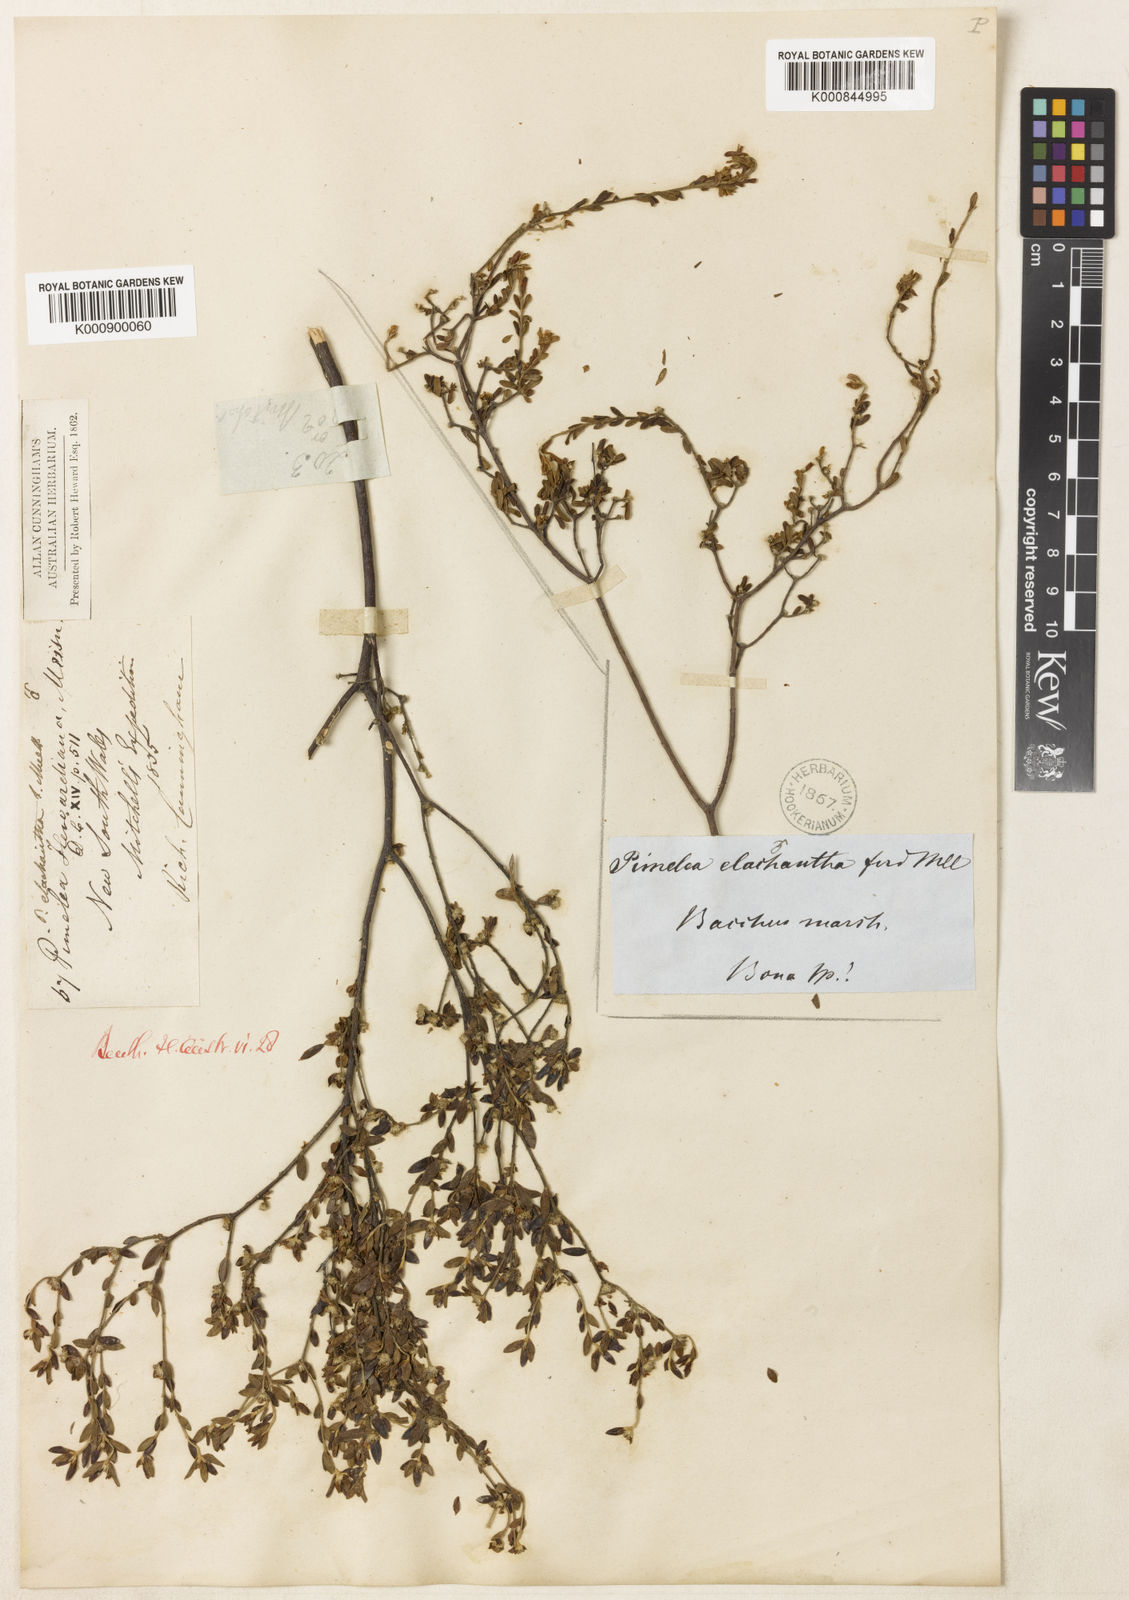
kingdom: Plantae
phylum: Tracheophyta
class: Magnoliopsida
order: Malvales
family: Thymelaeaceae
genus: Pimelea
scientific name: Pimelea hewardiana
